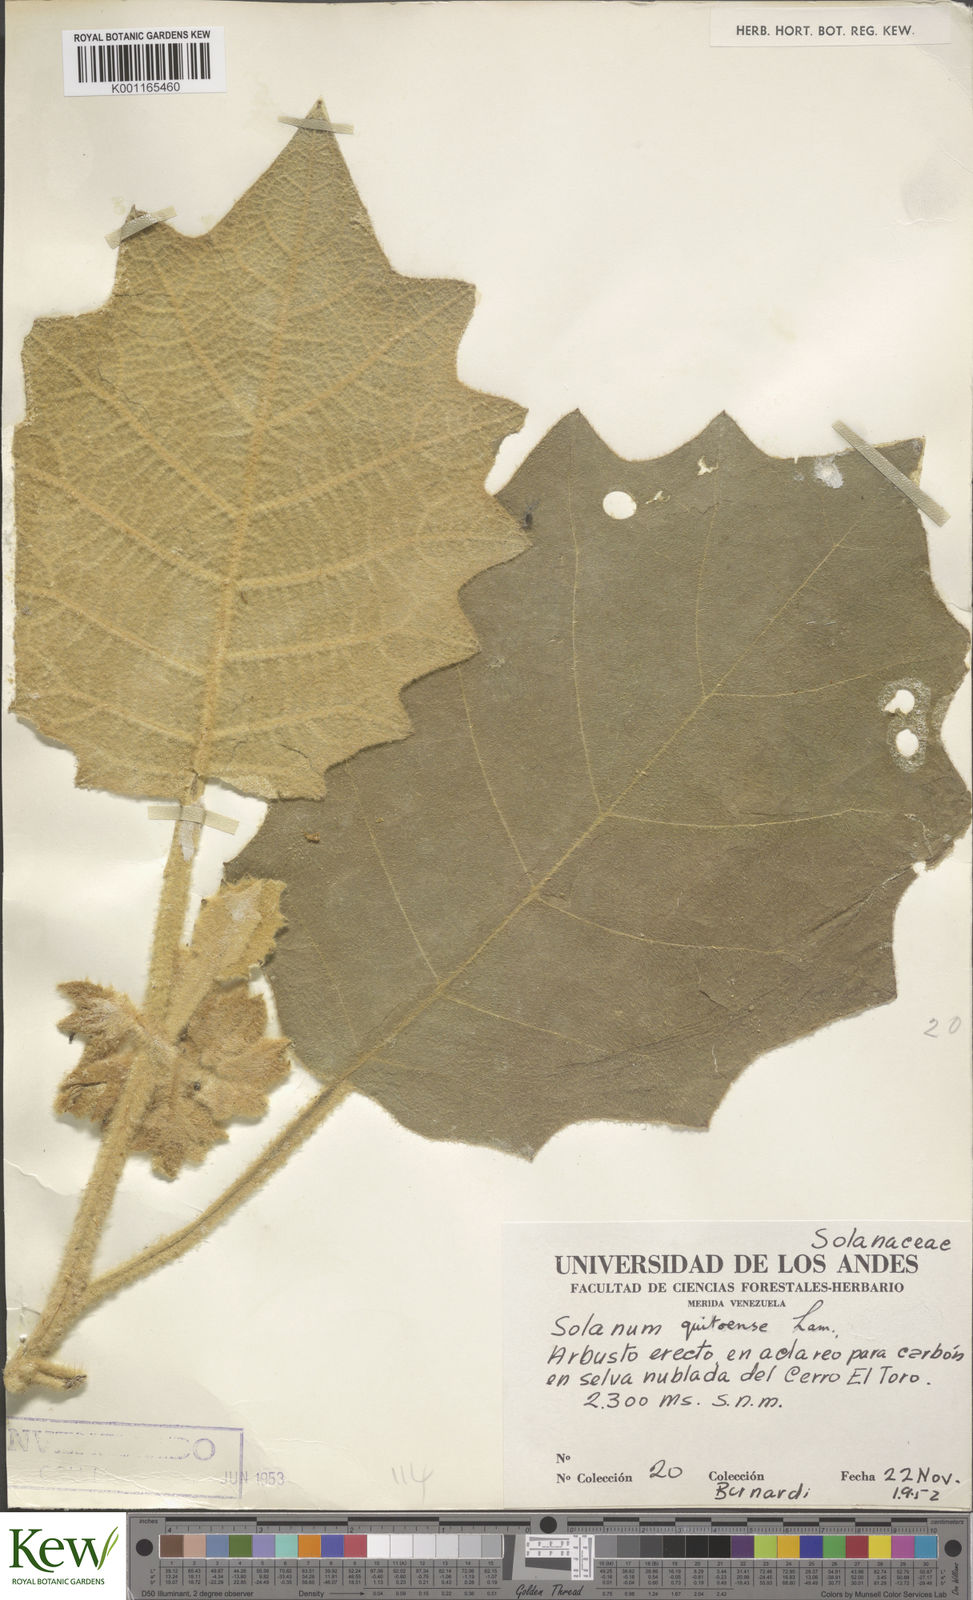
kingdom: Plantae
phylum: Tracheophyta
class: Magnoliopsida
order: Solanales
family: Solanaceae
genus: Solanum
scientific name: Solanum quitoense
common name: Quito-orange
